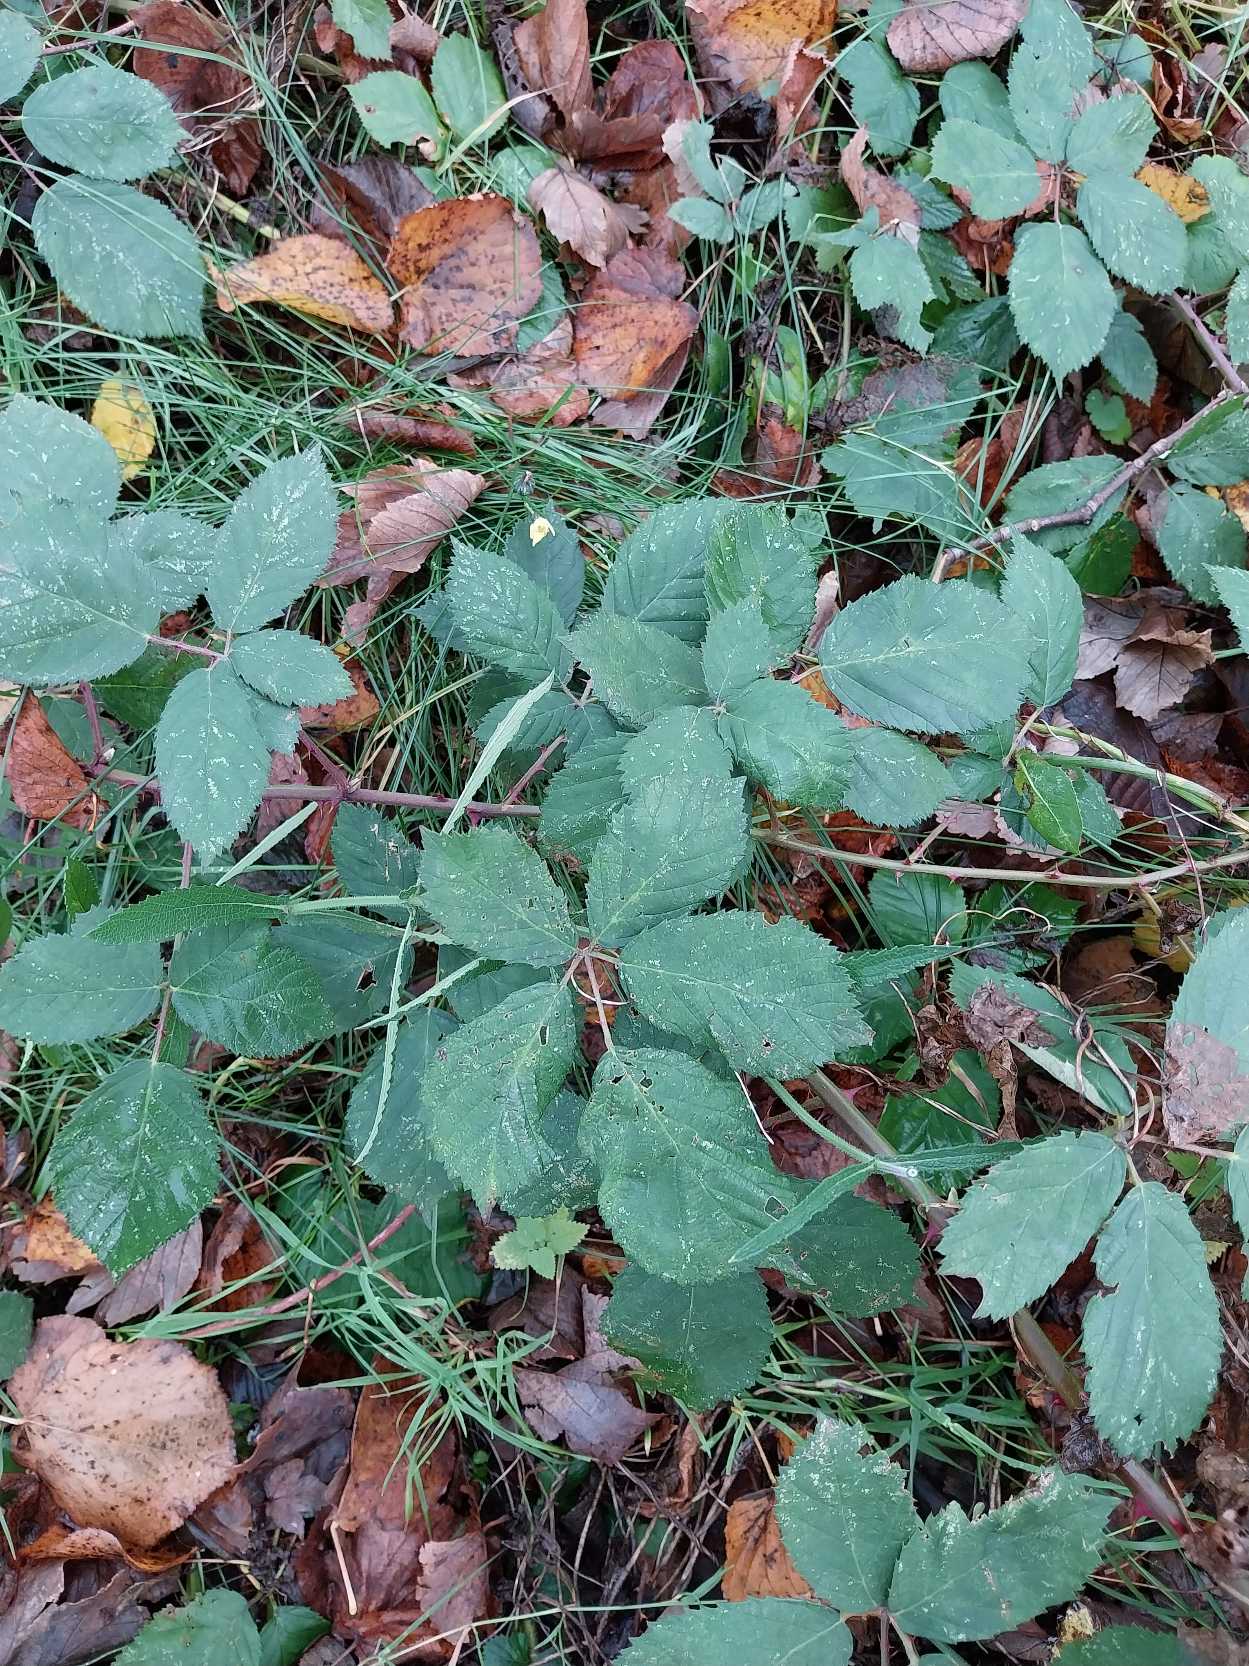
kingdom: Plantae
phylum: Tracheophyta
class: Magnoliopsida
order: Rosales
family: Rosaceae
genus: Rubus
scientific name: Rubus armeniacus
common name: Armensk brombær
